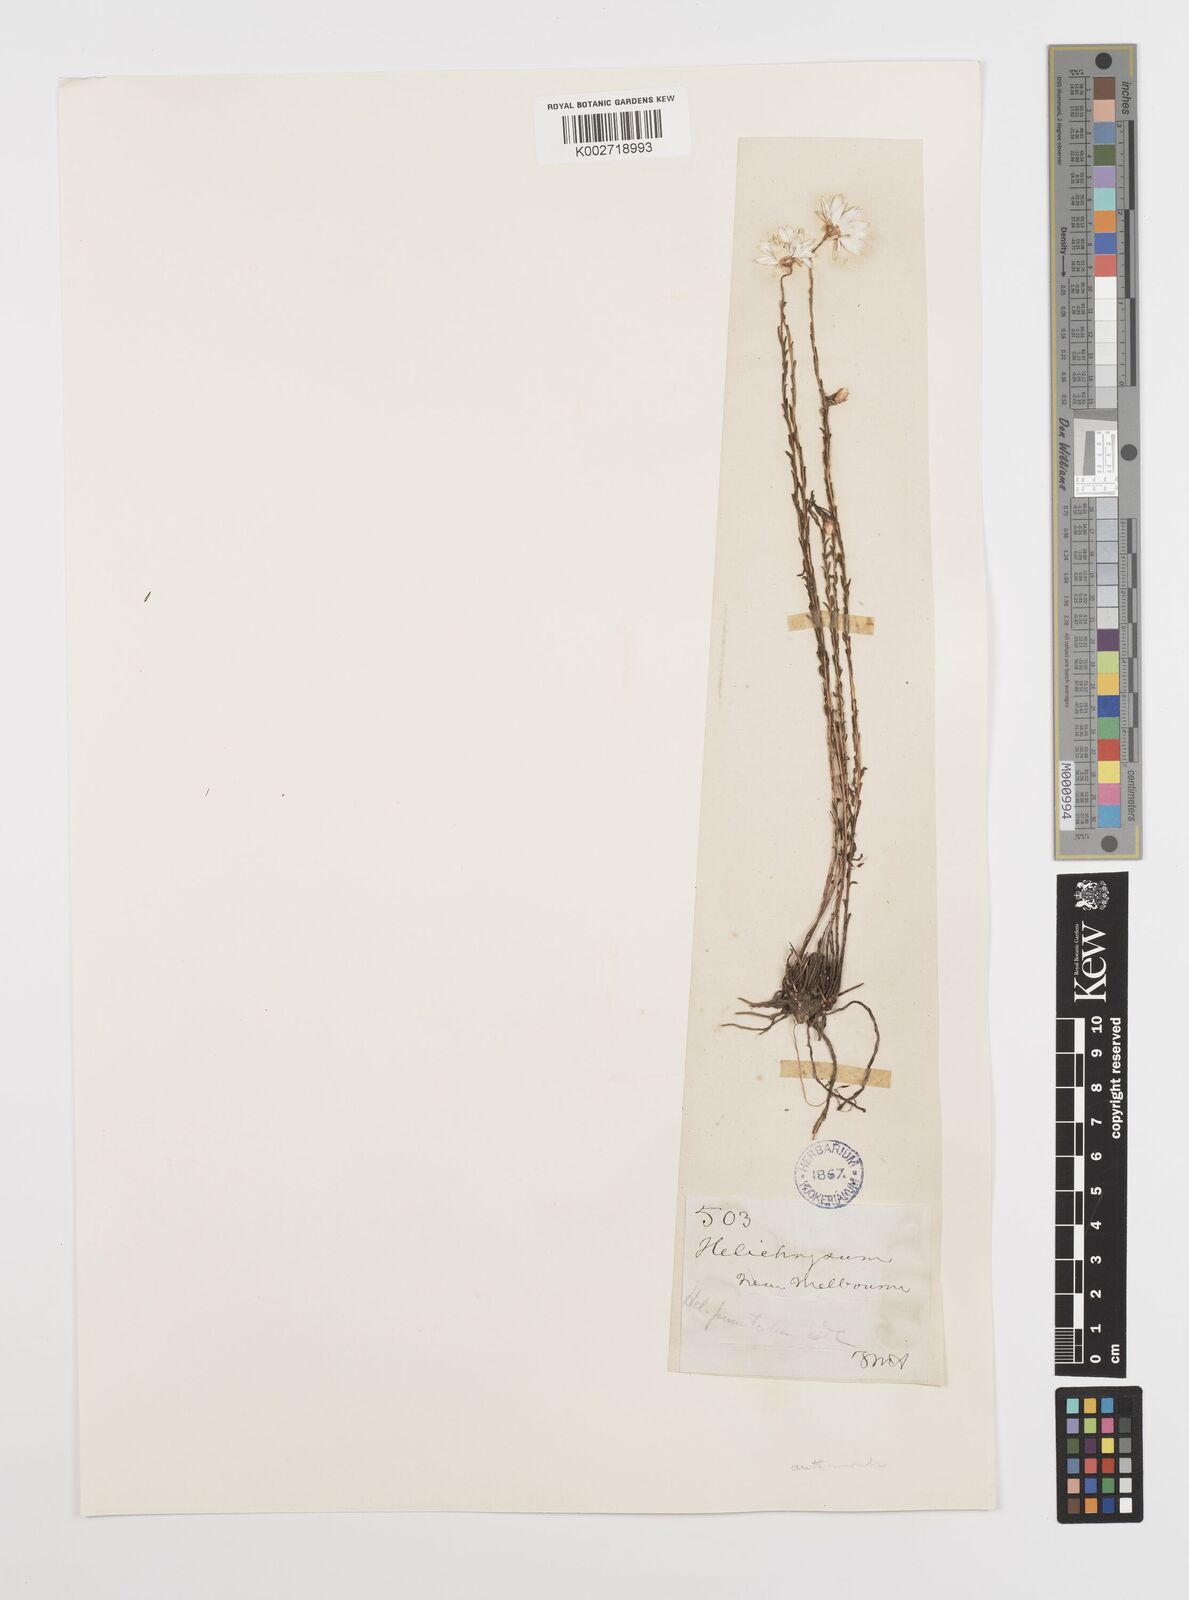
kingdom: Plantae
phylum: Tracheophyta
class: Magnoliopsida
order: Asterales
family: Asteraceae
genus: Rhodanthe
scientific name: Rhodanthe anthemoides
